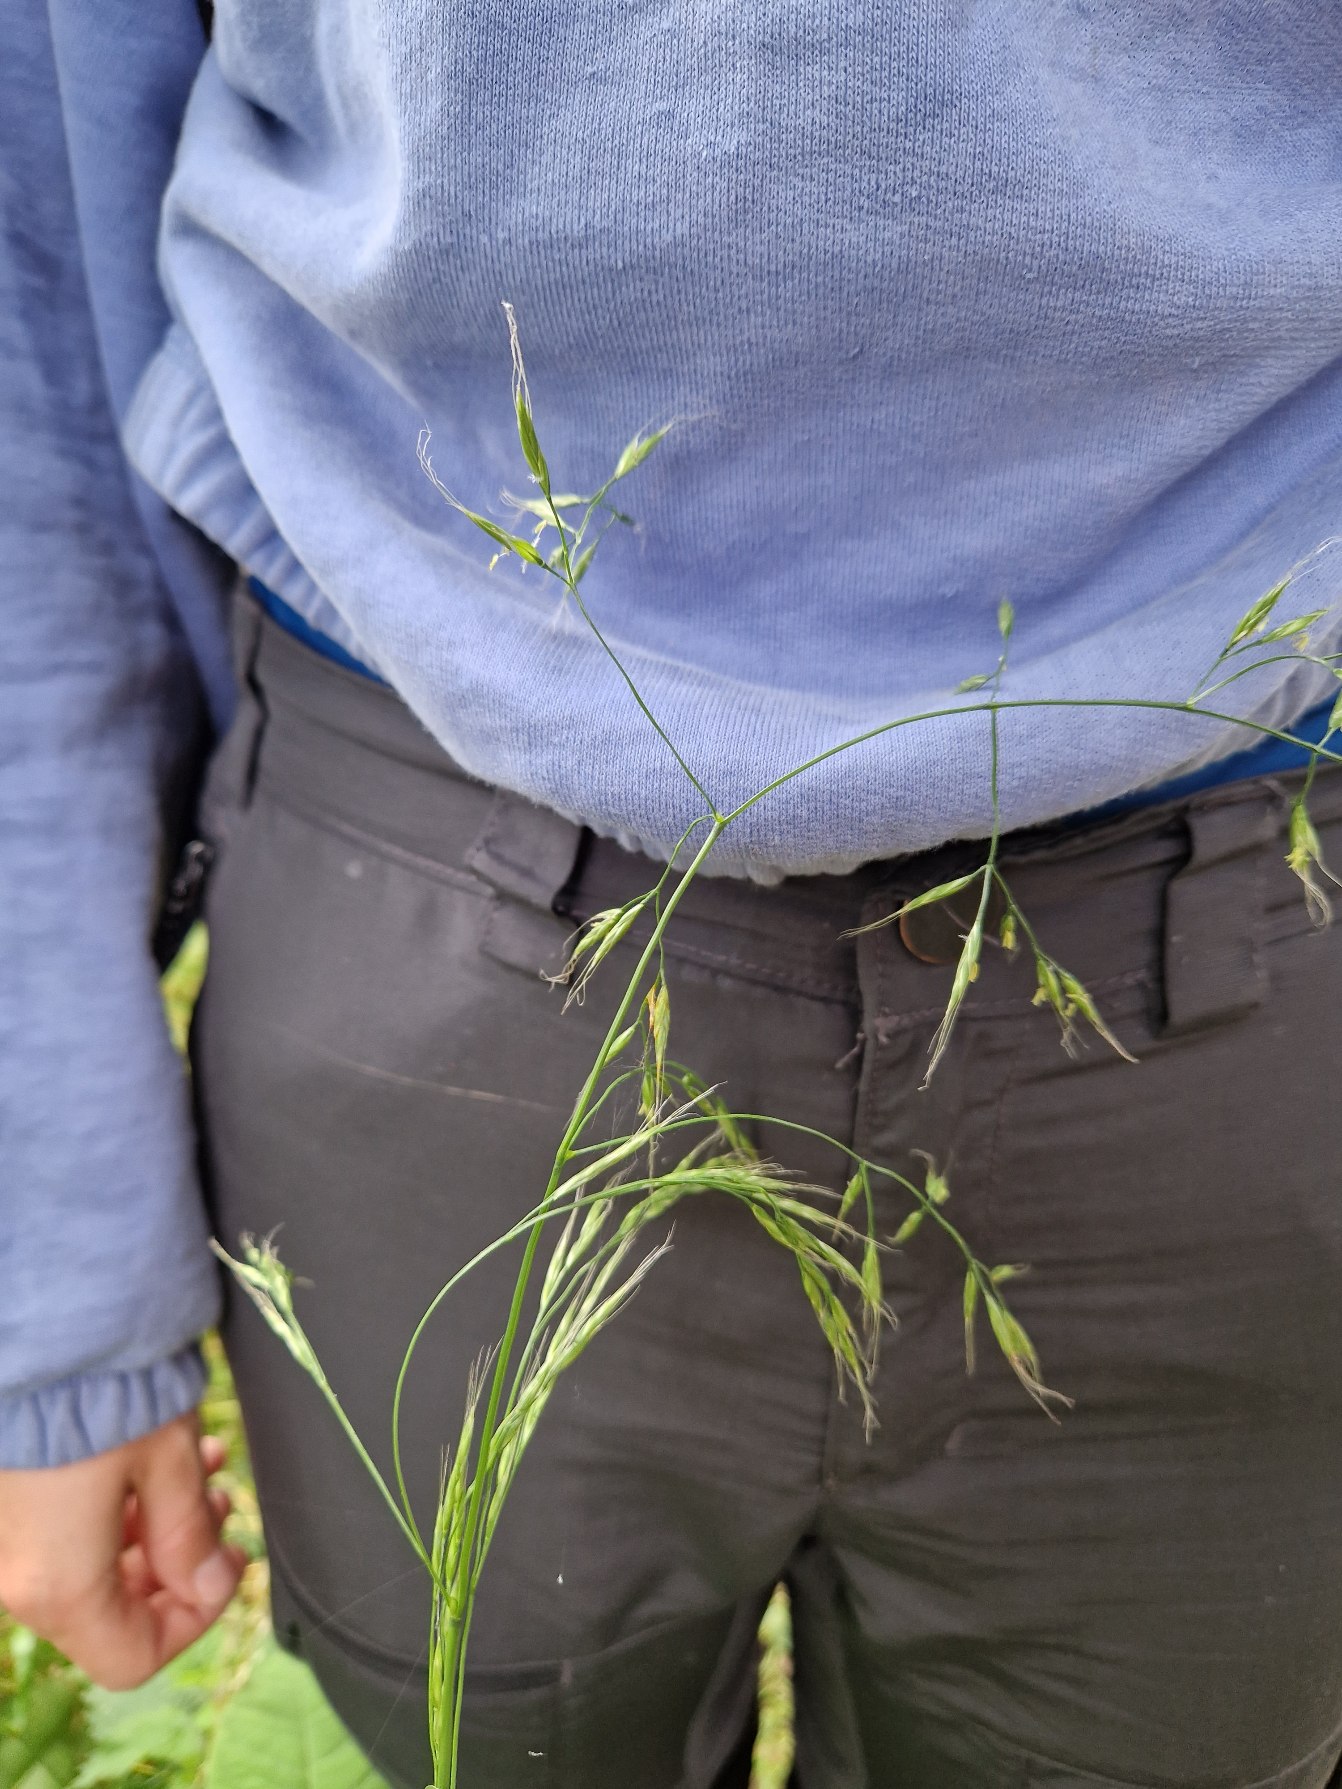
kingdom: Plantae
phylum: Tracheophyta
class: Liliopsida
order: Poales
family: Poaceae
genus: Lolium
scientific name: Lolium giganteum
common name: Kæmpe-svingel
